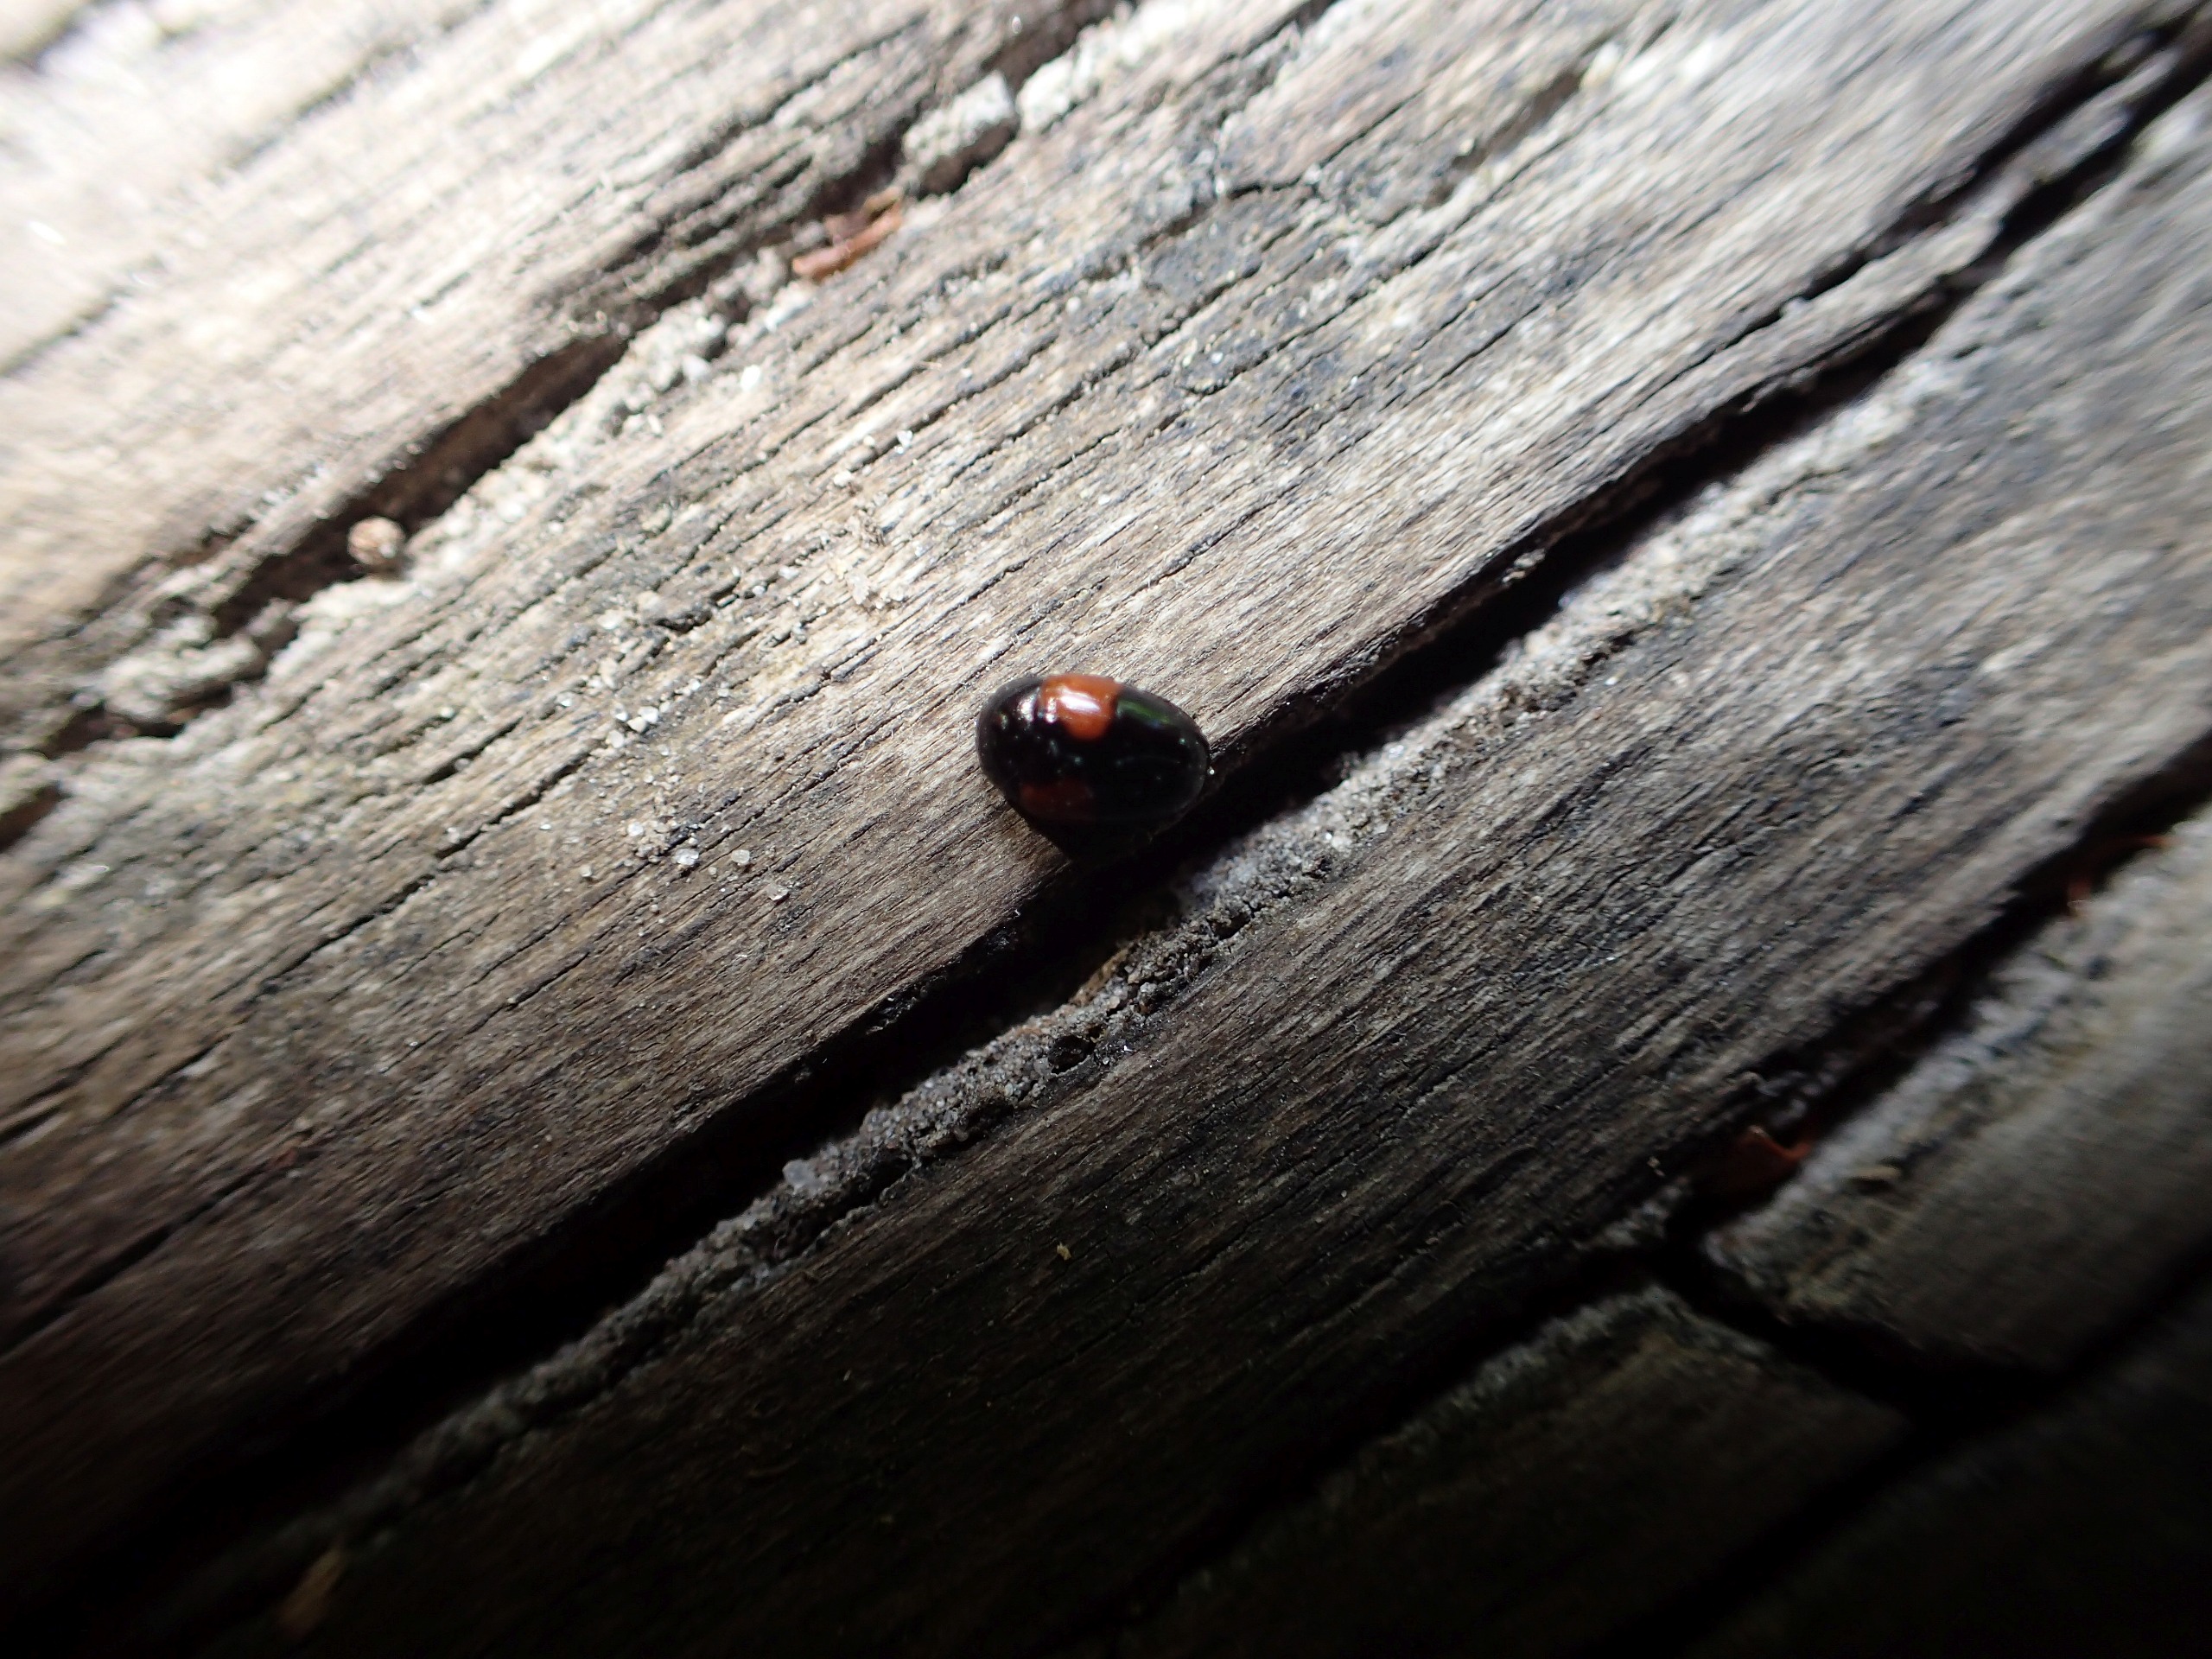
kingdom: Animalia
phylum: Arthropoda
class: Insecta
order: Coleoptera
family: Erotylidae
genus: Tritoma
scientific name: Tritoma bipustulata
